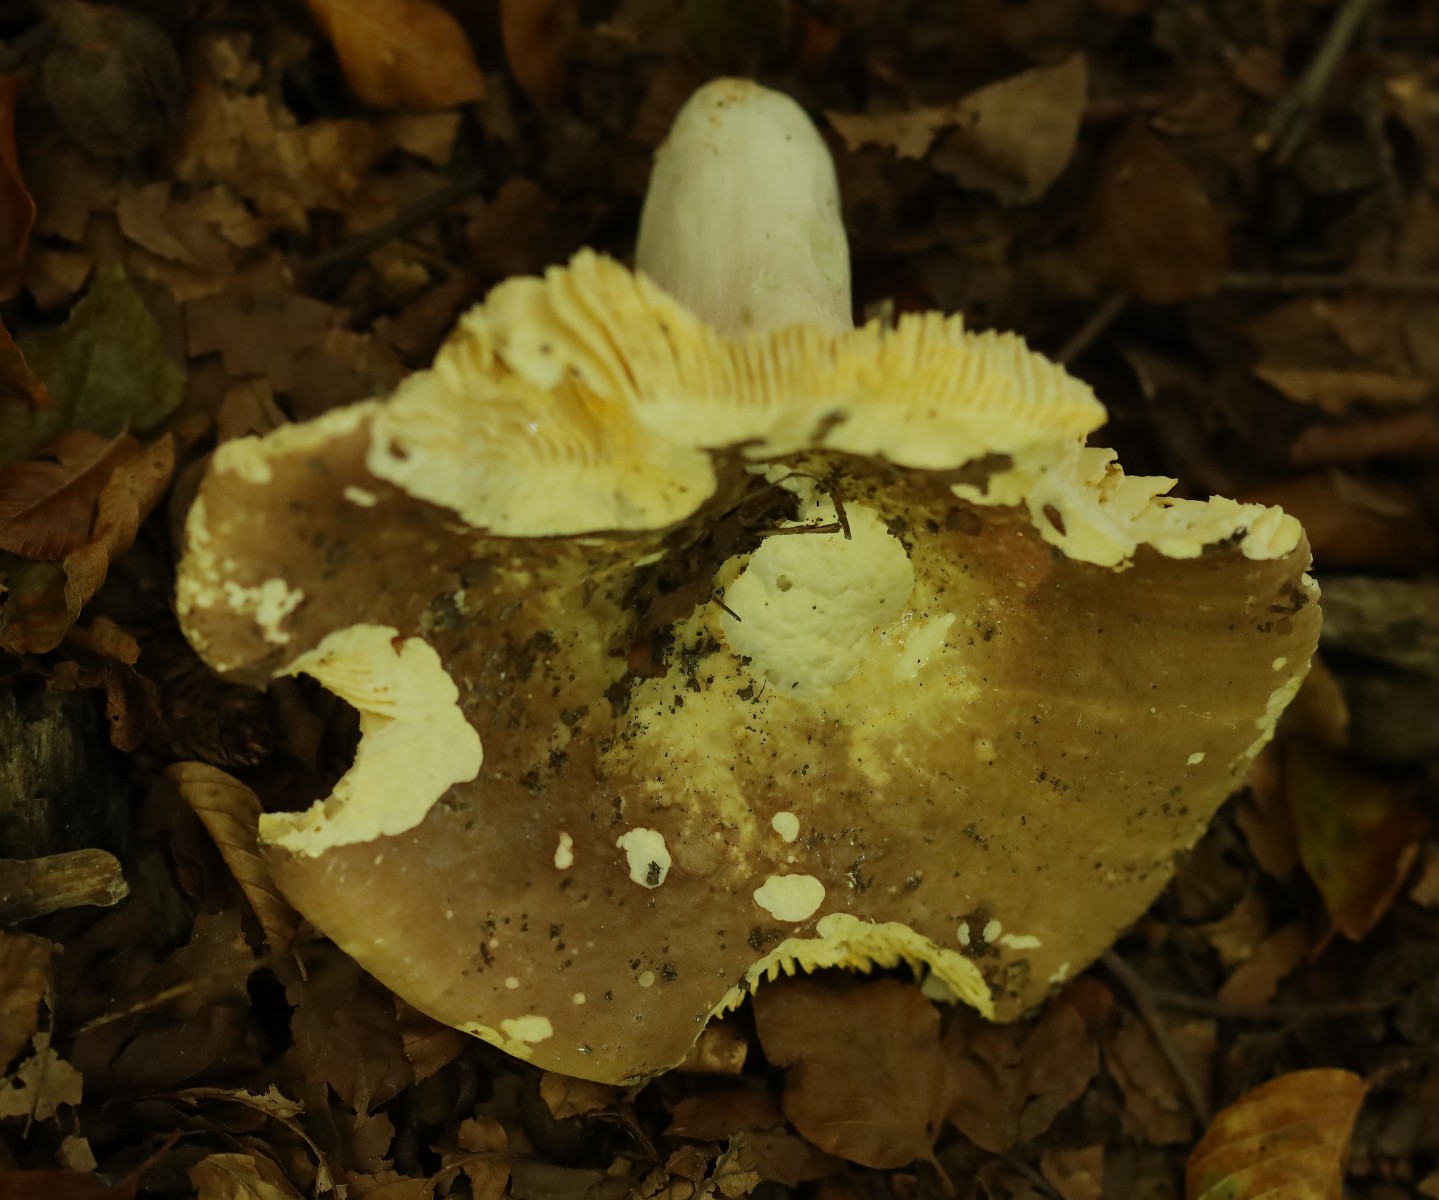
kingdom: Fungi
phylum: Basidiomycota
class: Agaricomycetes
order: Russulales
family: Russulaceae
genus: Russula
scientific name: Russula olivacea
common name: stor skørhat
